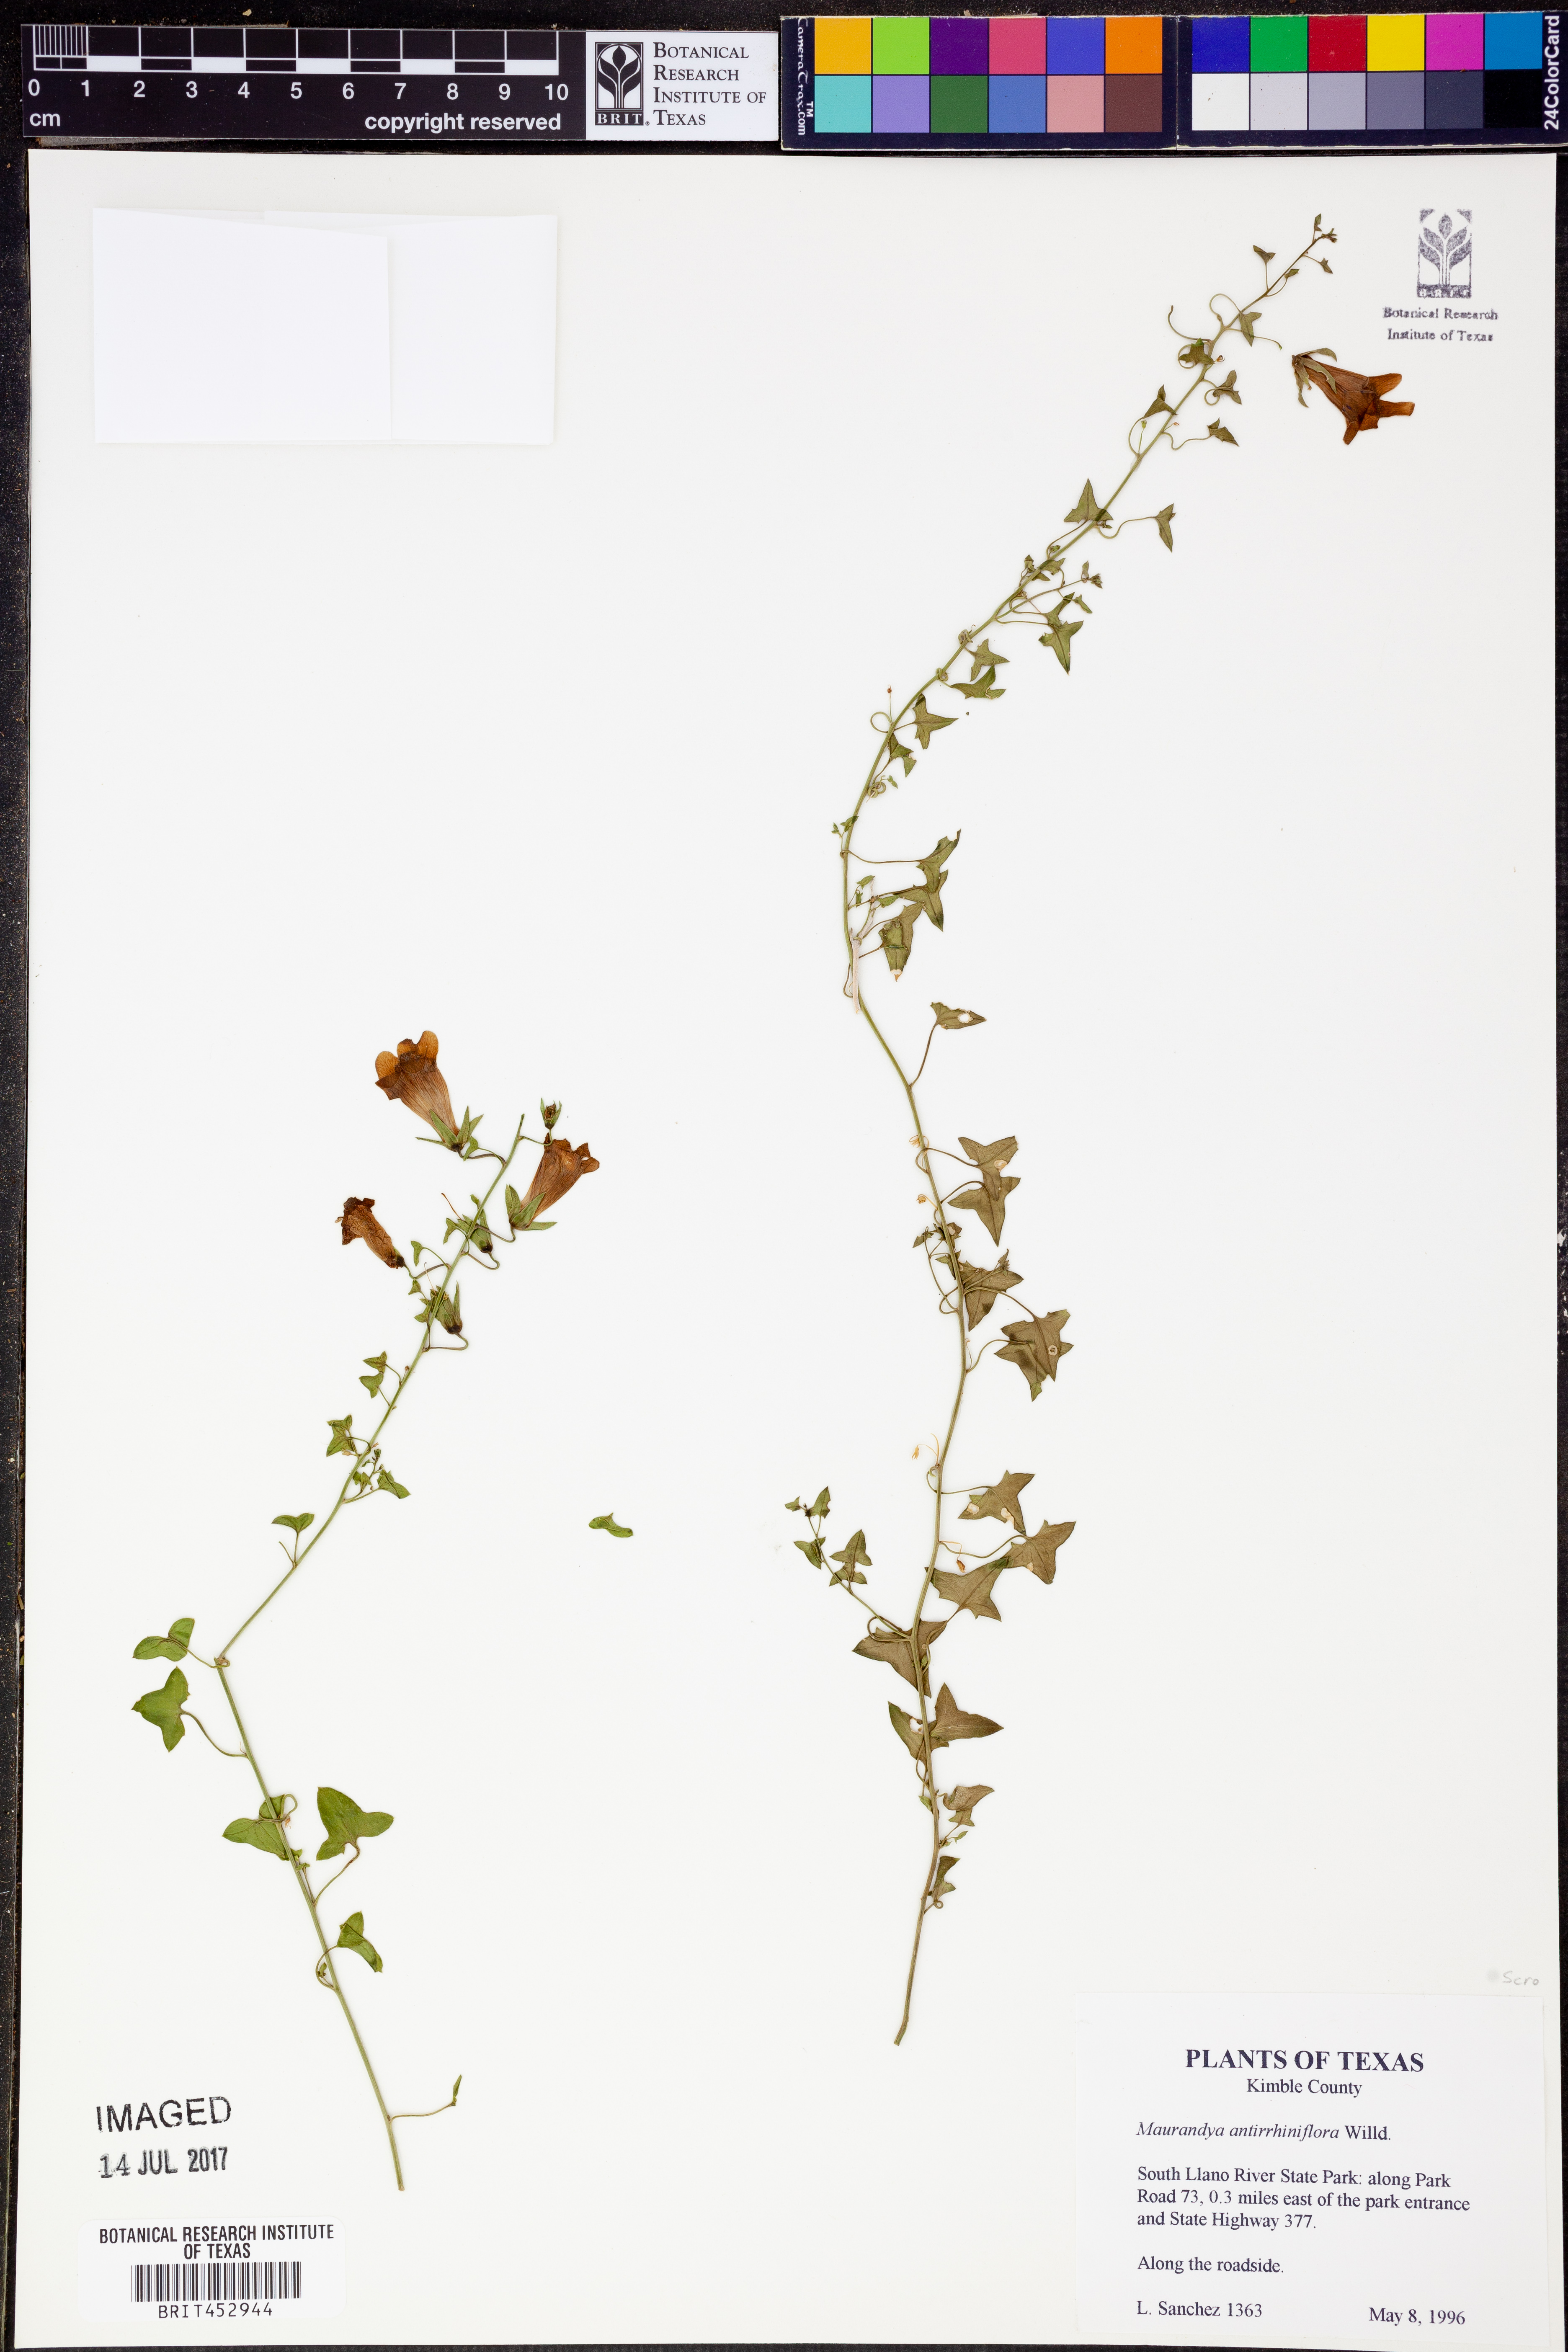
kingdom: Plantae
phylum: Tracheophyta
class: Magnoliopsida
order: Lamiales
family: Plantaginaceae
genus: Maurandella
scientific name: Maurandella antirrhiniflora
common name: Violet twining-snapdragon
